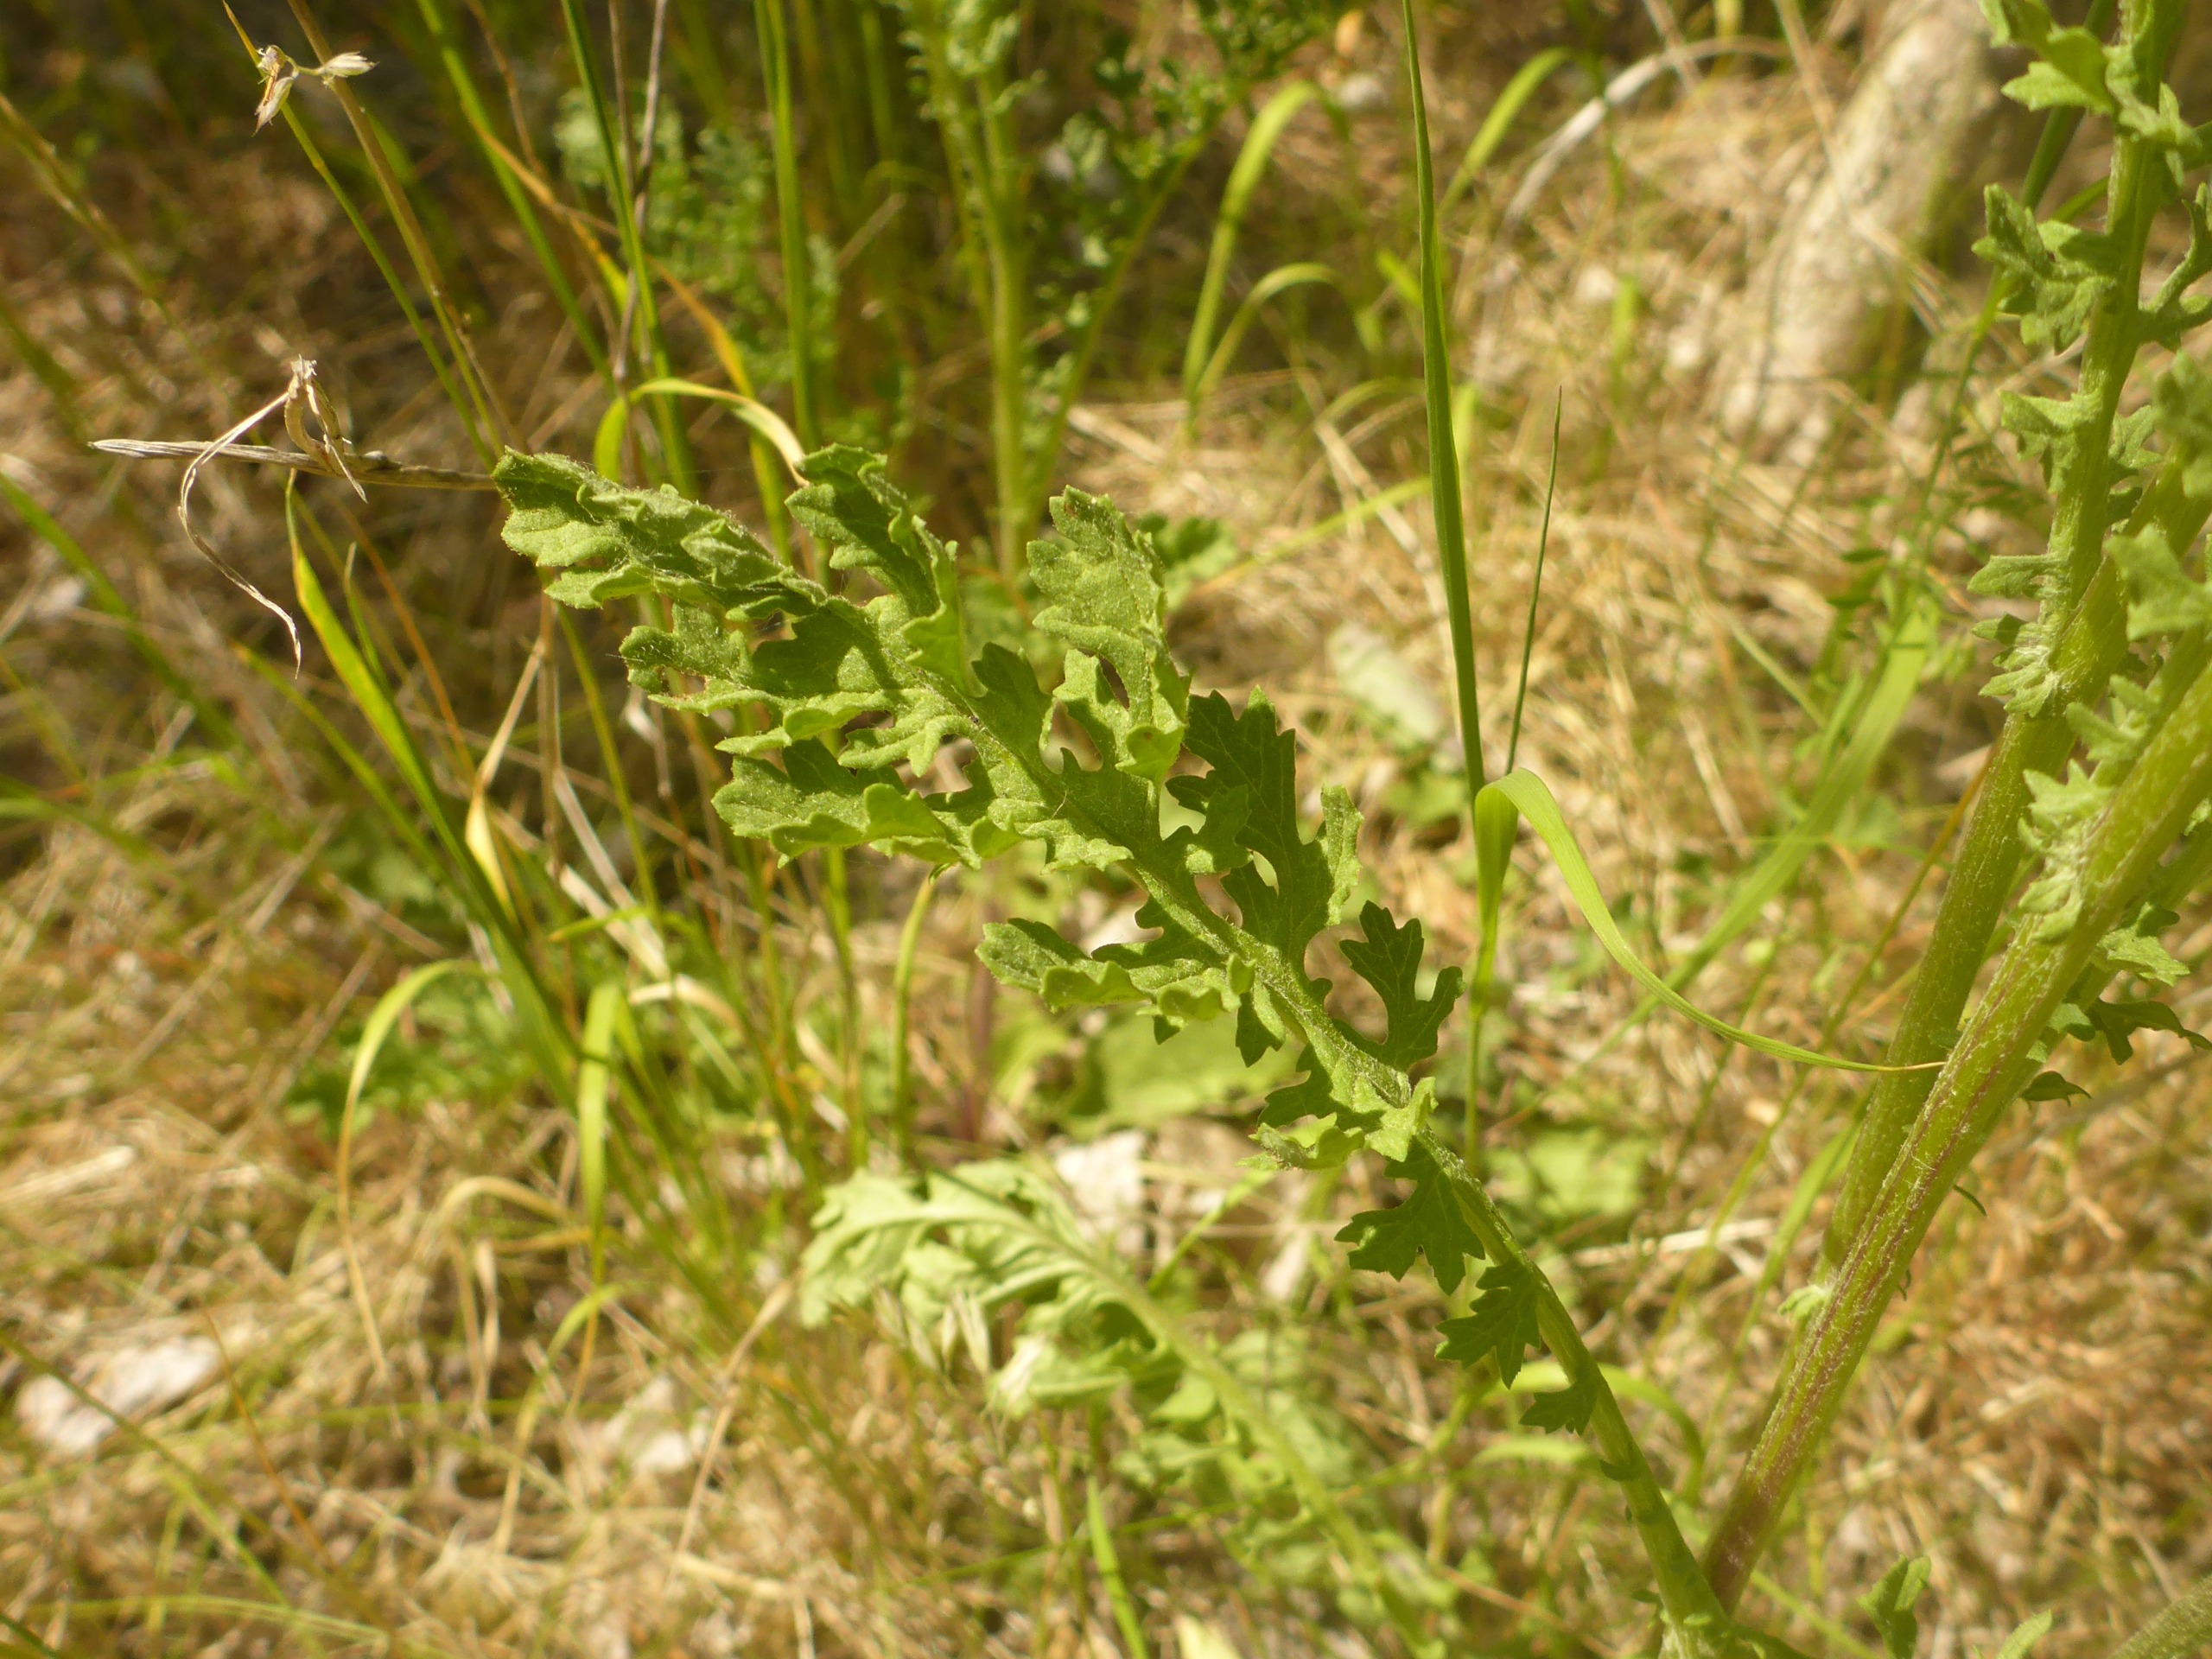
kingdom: Plantae
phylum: Tracheophyta
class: Magnoliopsida
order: Asterales
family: Asteraceae
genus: Jacobaea
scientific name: Jacobaea vulgaris
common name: Eng-brandbæger
